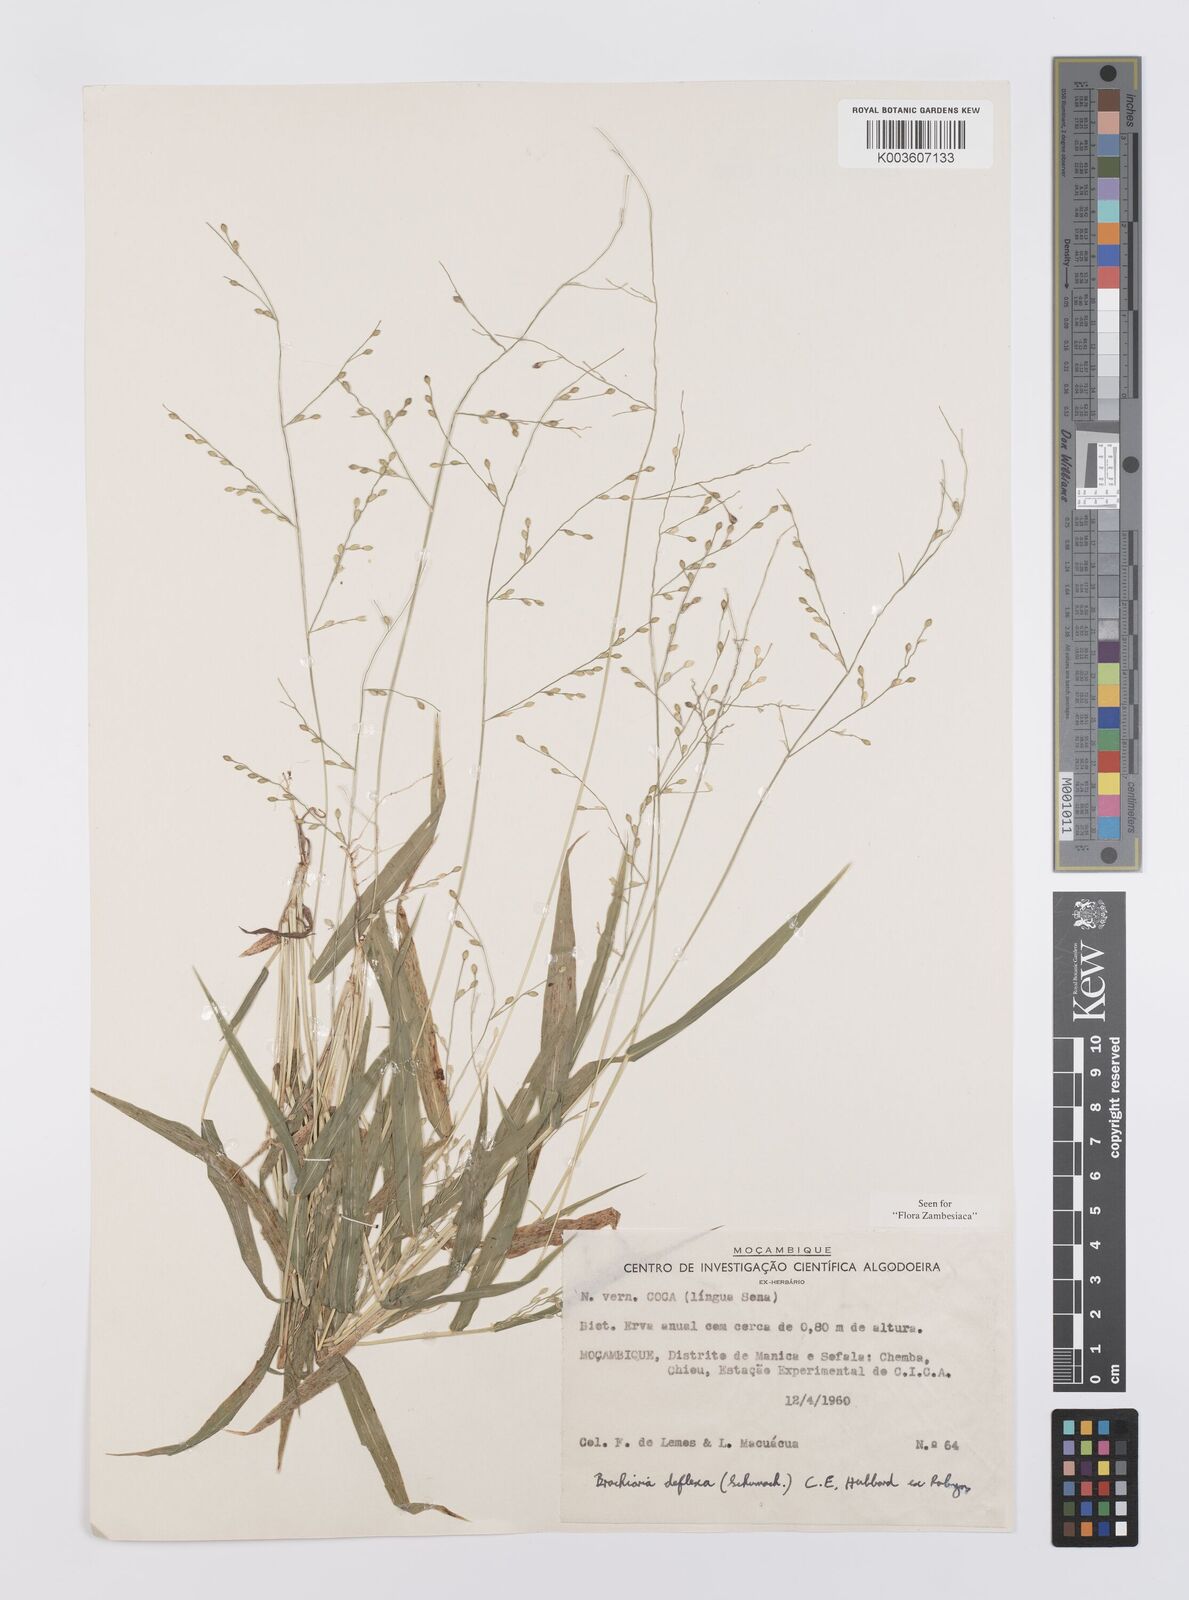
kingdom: Plantae
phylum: Tracheophyta
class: Liliopsida
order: Poales
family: Poaceae
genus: Urochloa
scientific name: Urochloa deflexa
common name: Guinea millet
